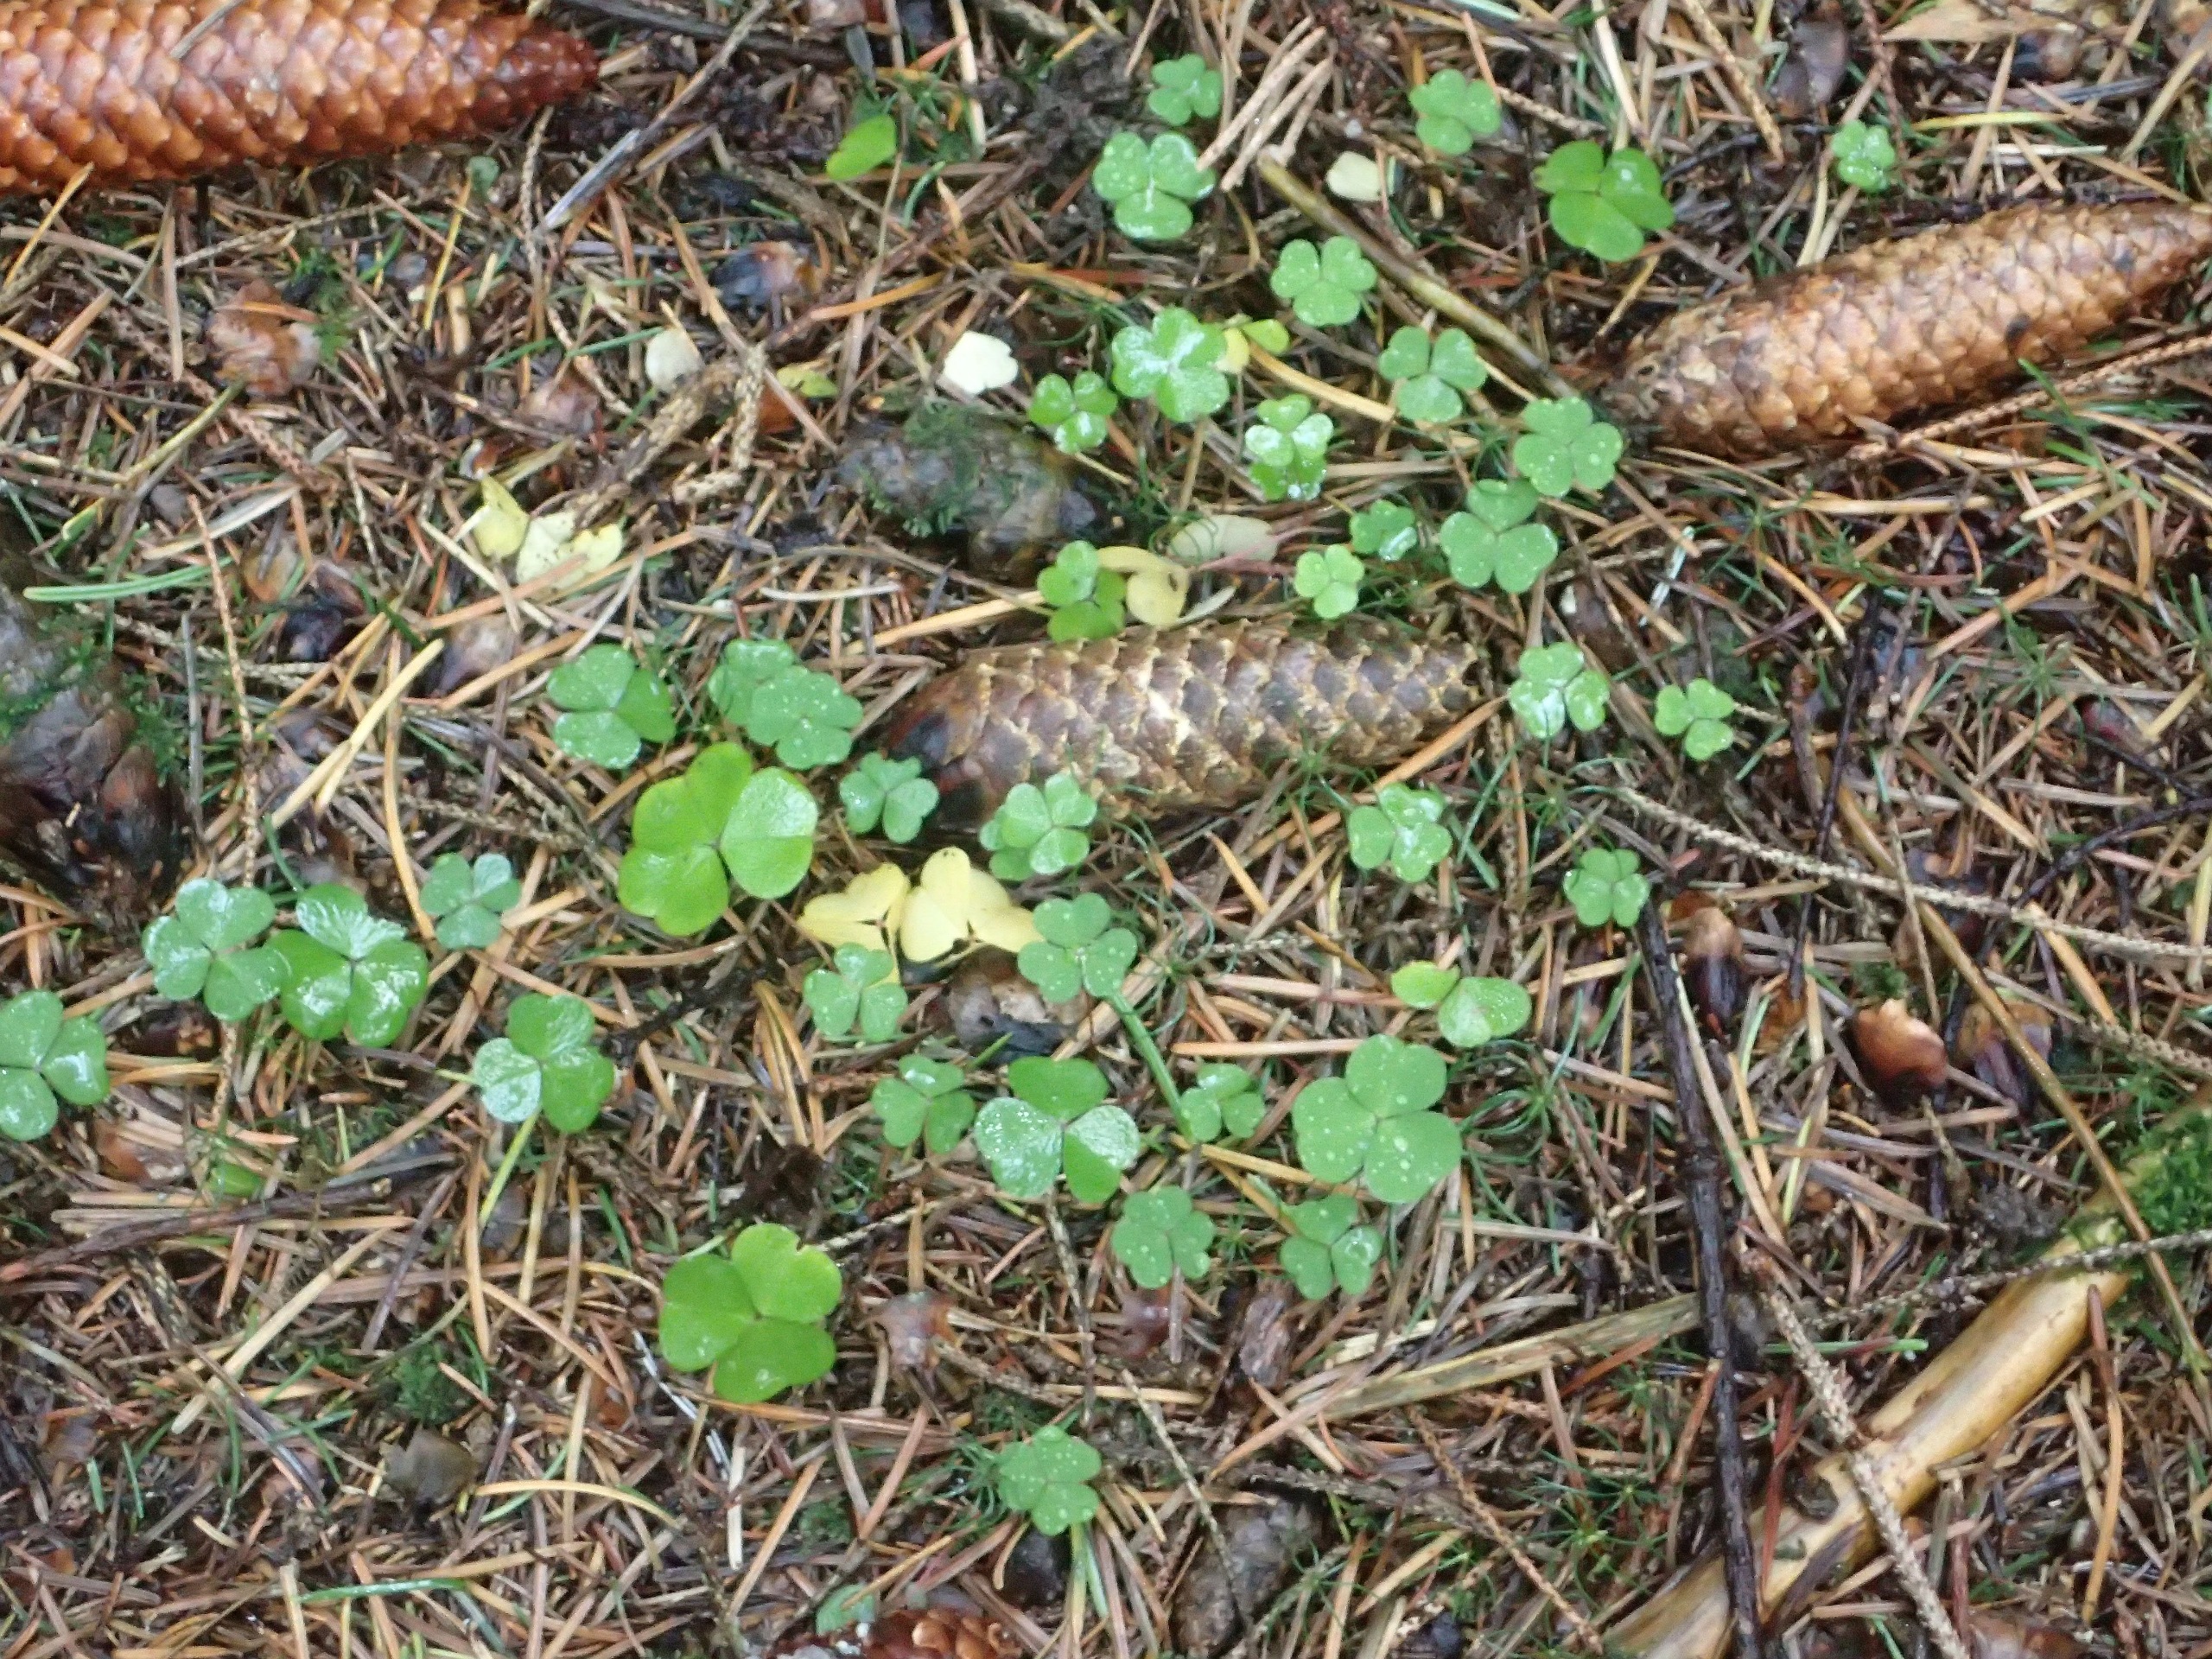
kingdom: Plantae
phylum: Tracheophyta
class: Magnoliopsida
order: Oxalidales
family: Oxalidaceae
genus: Oxalis
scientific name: Oxalis acetosella
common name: Skovsyre
